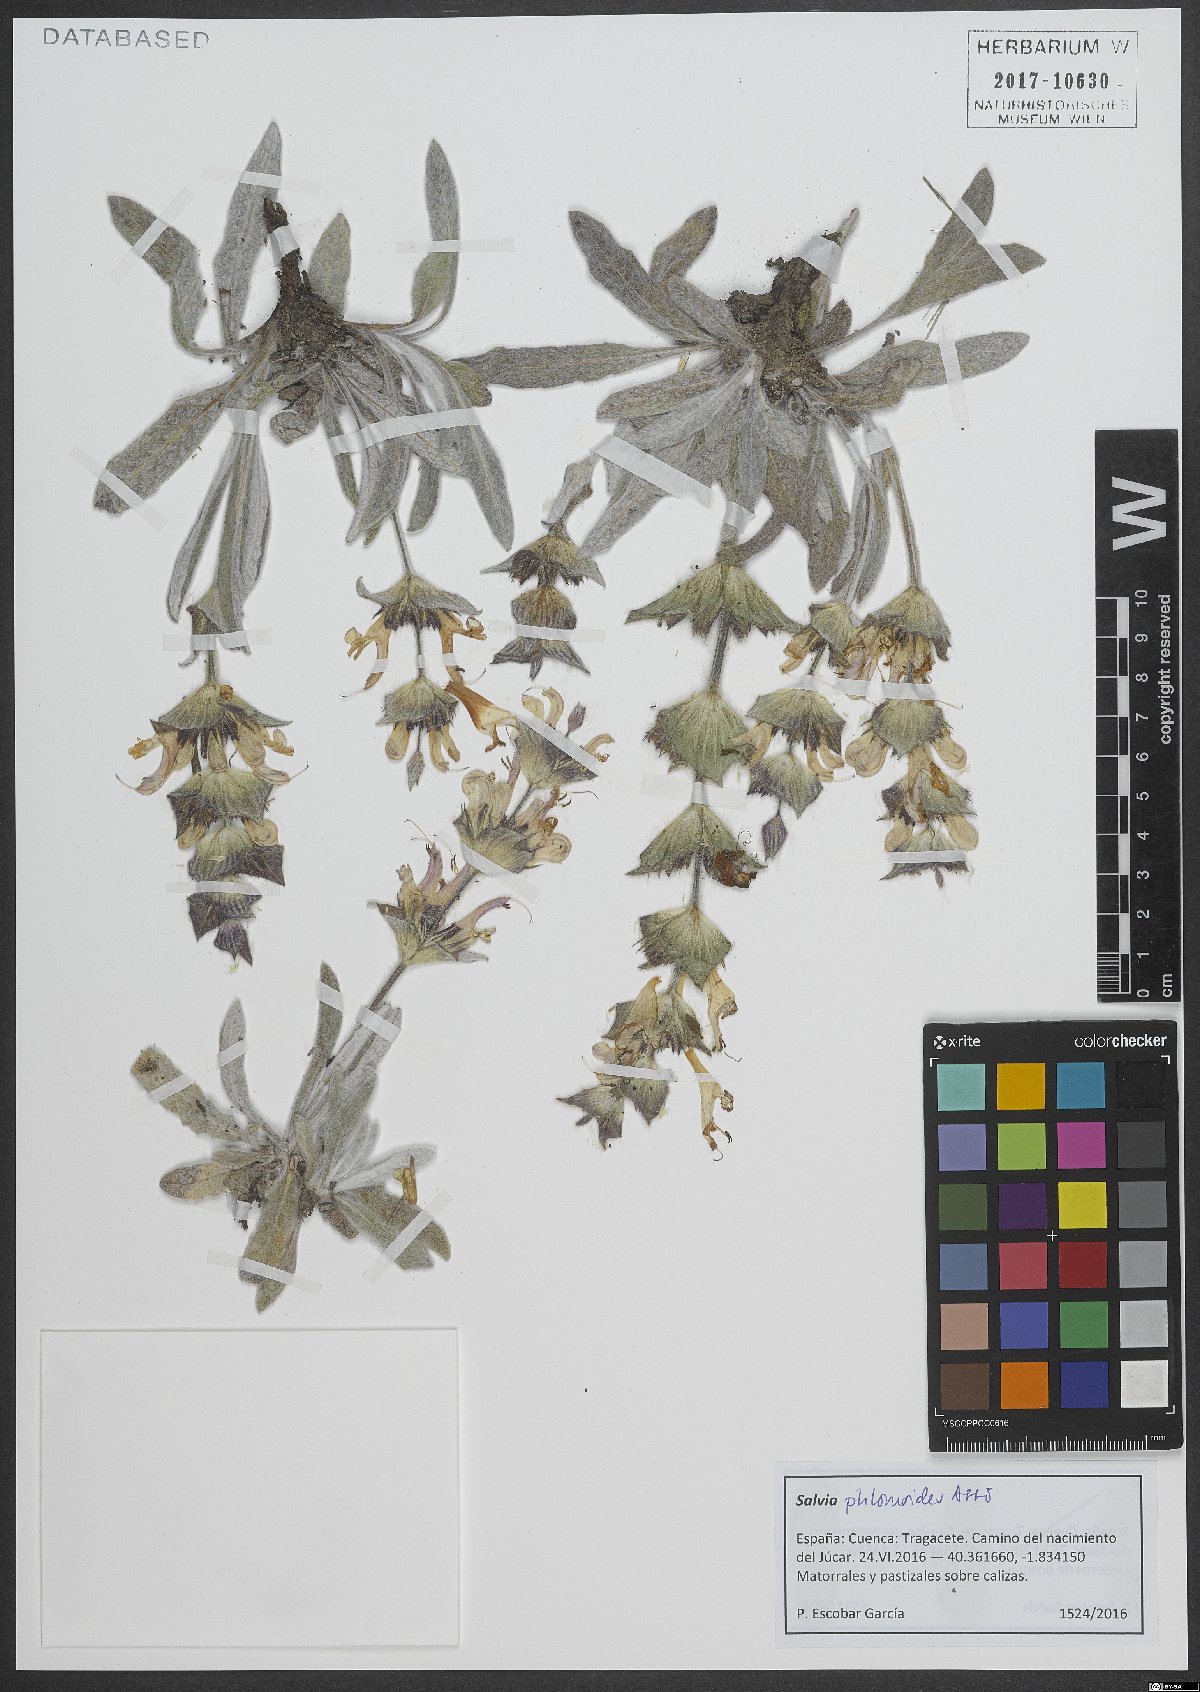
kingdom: Plantae
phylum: Tracheophyta
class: Magnoliopsida
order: Lamiales
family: Lamiaceae
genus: Salvia
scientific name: Salvia phlomoides
